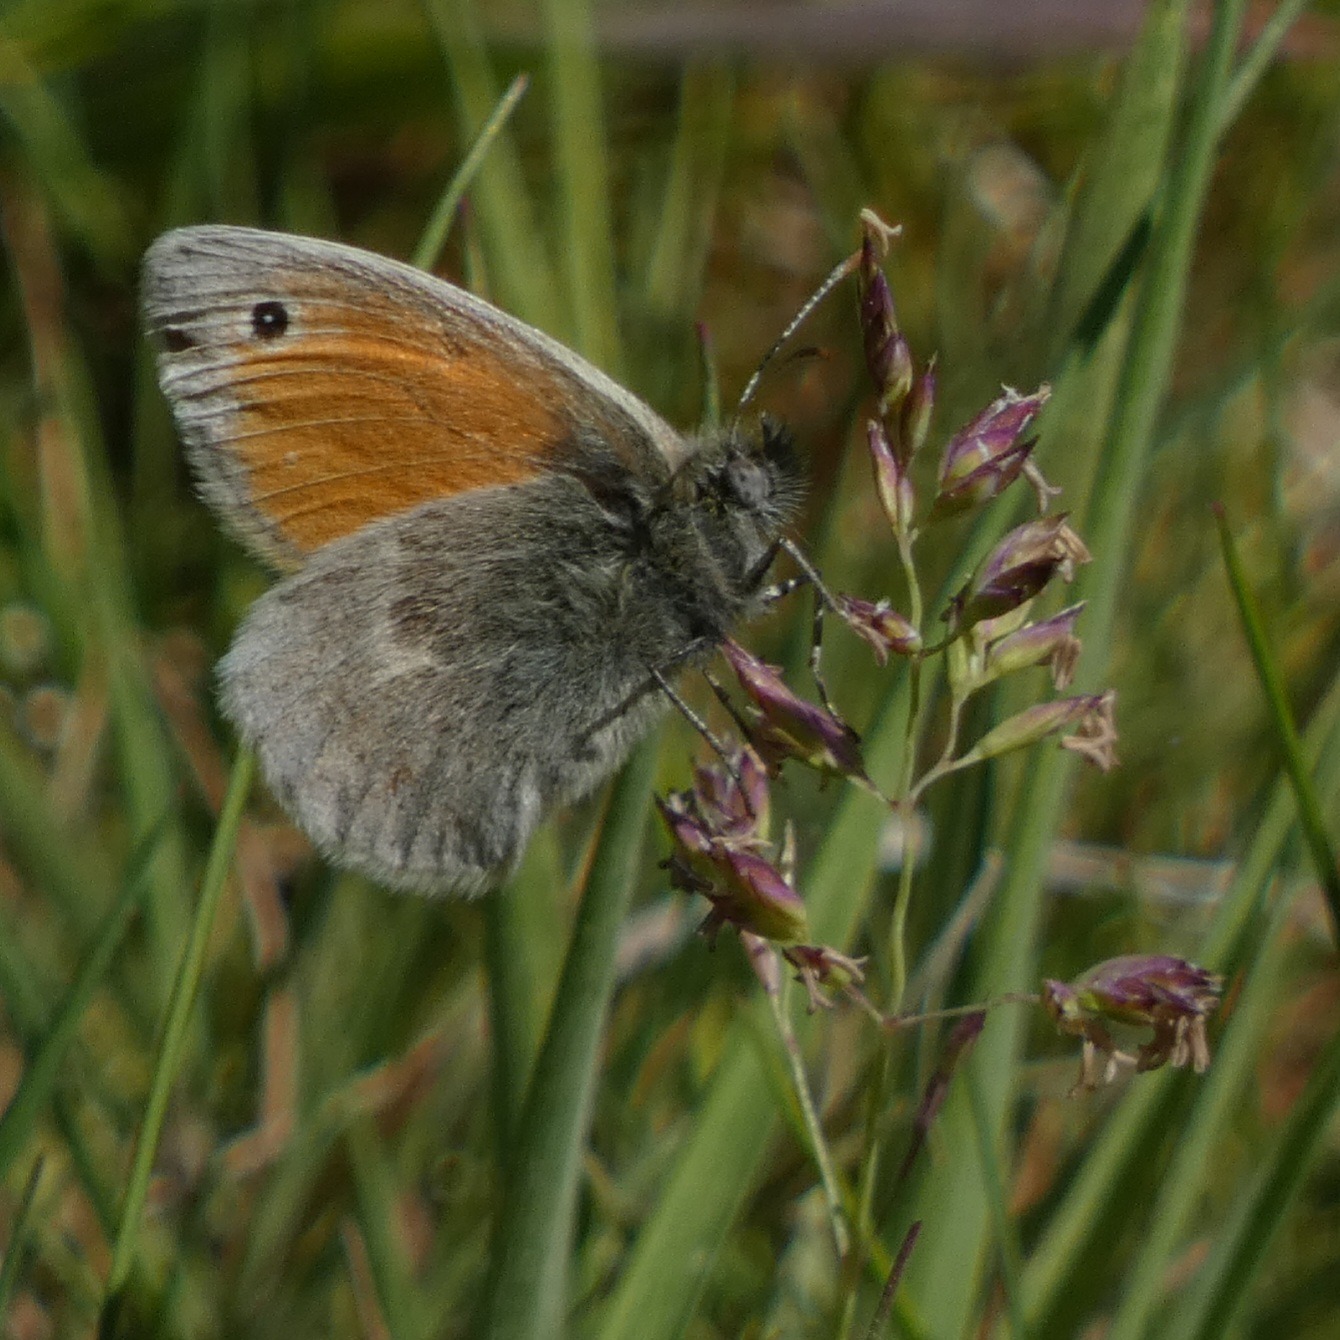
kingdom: Animalia
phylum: Arthropoda
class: Insecta
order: Lepidoptera
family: Nymphalidae
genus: Coenonympha
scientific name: Coenonympha pamphilus
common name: Okkergul randøje
